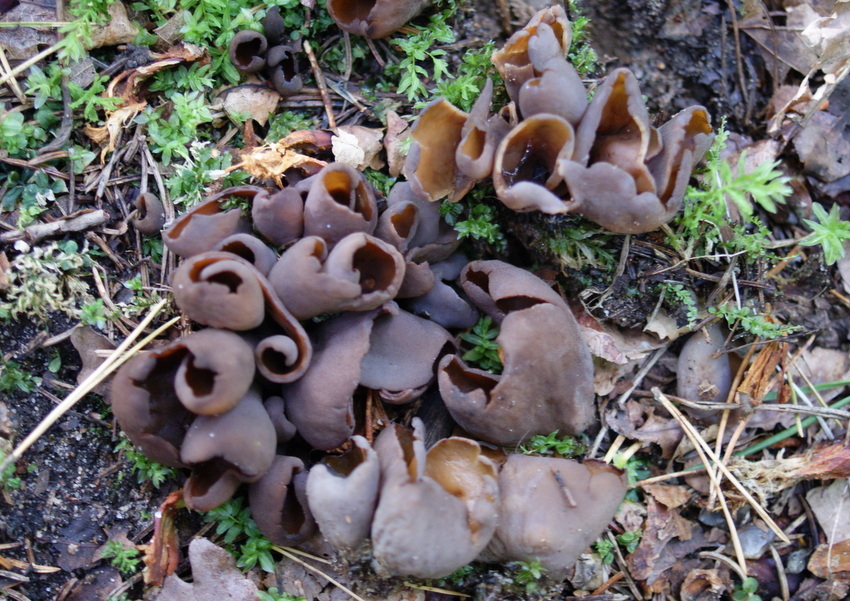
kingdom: Fungi
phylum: Ascomycota
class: Pezizomycetes
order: Pezizales
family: Otideaceae
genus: Otidea
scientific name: Otidea bufonia
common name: brun ørebæger
